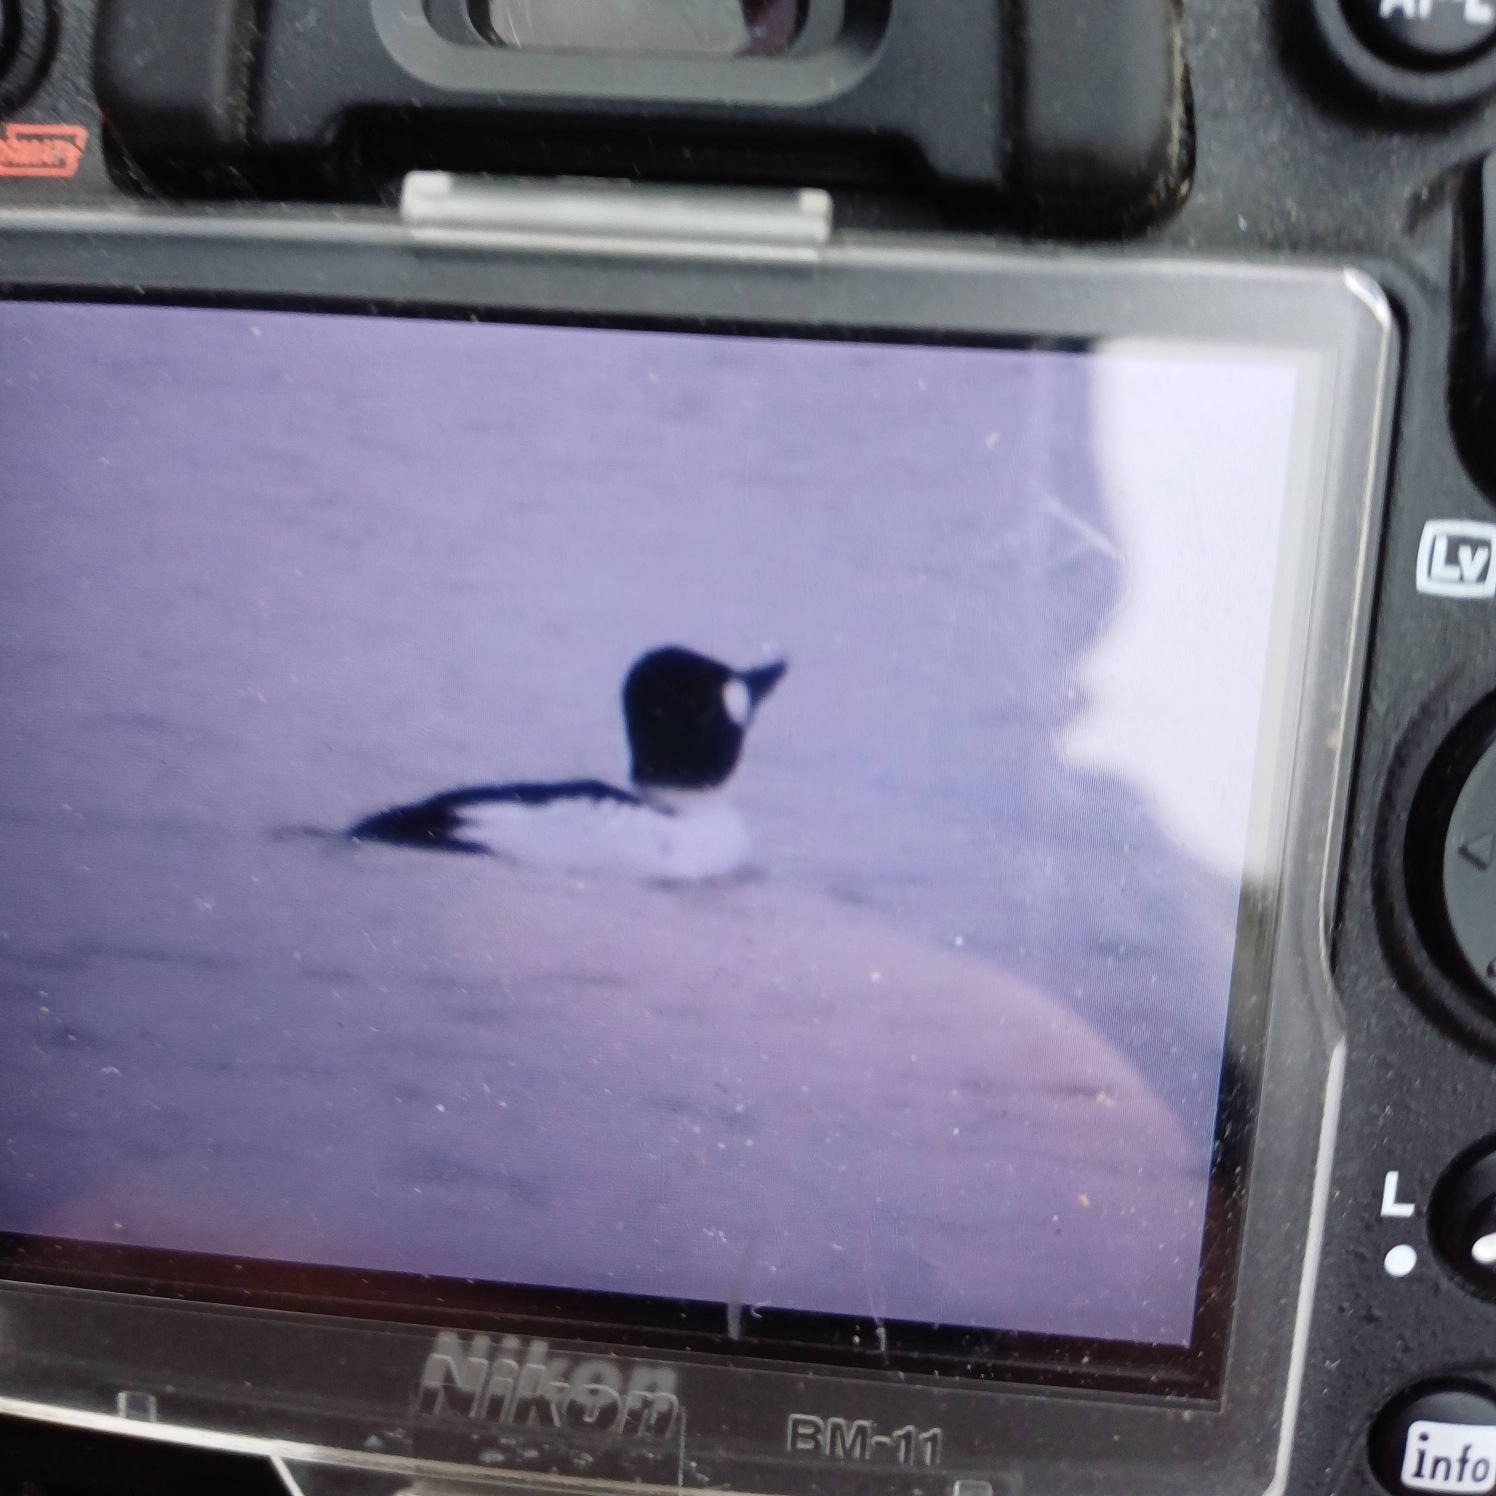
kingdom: Animalia
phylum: Chordata
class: Aves
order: Anseriformes
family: Anatidae
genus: Bucephala
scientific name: Bucephala clangula
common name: Hvinand
